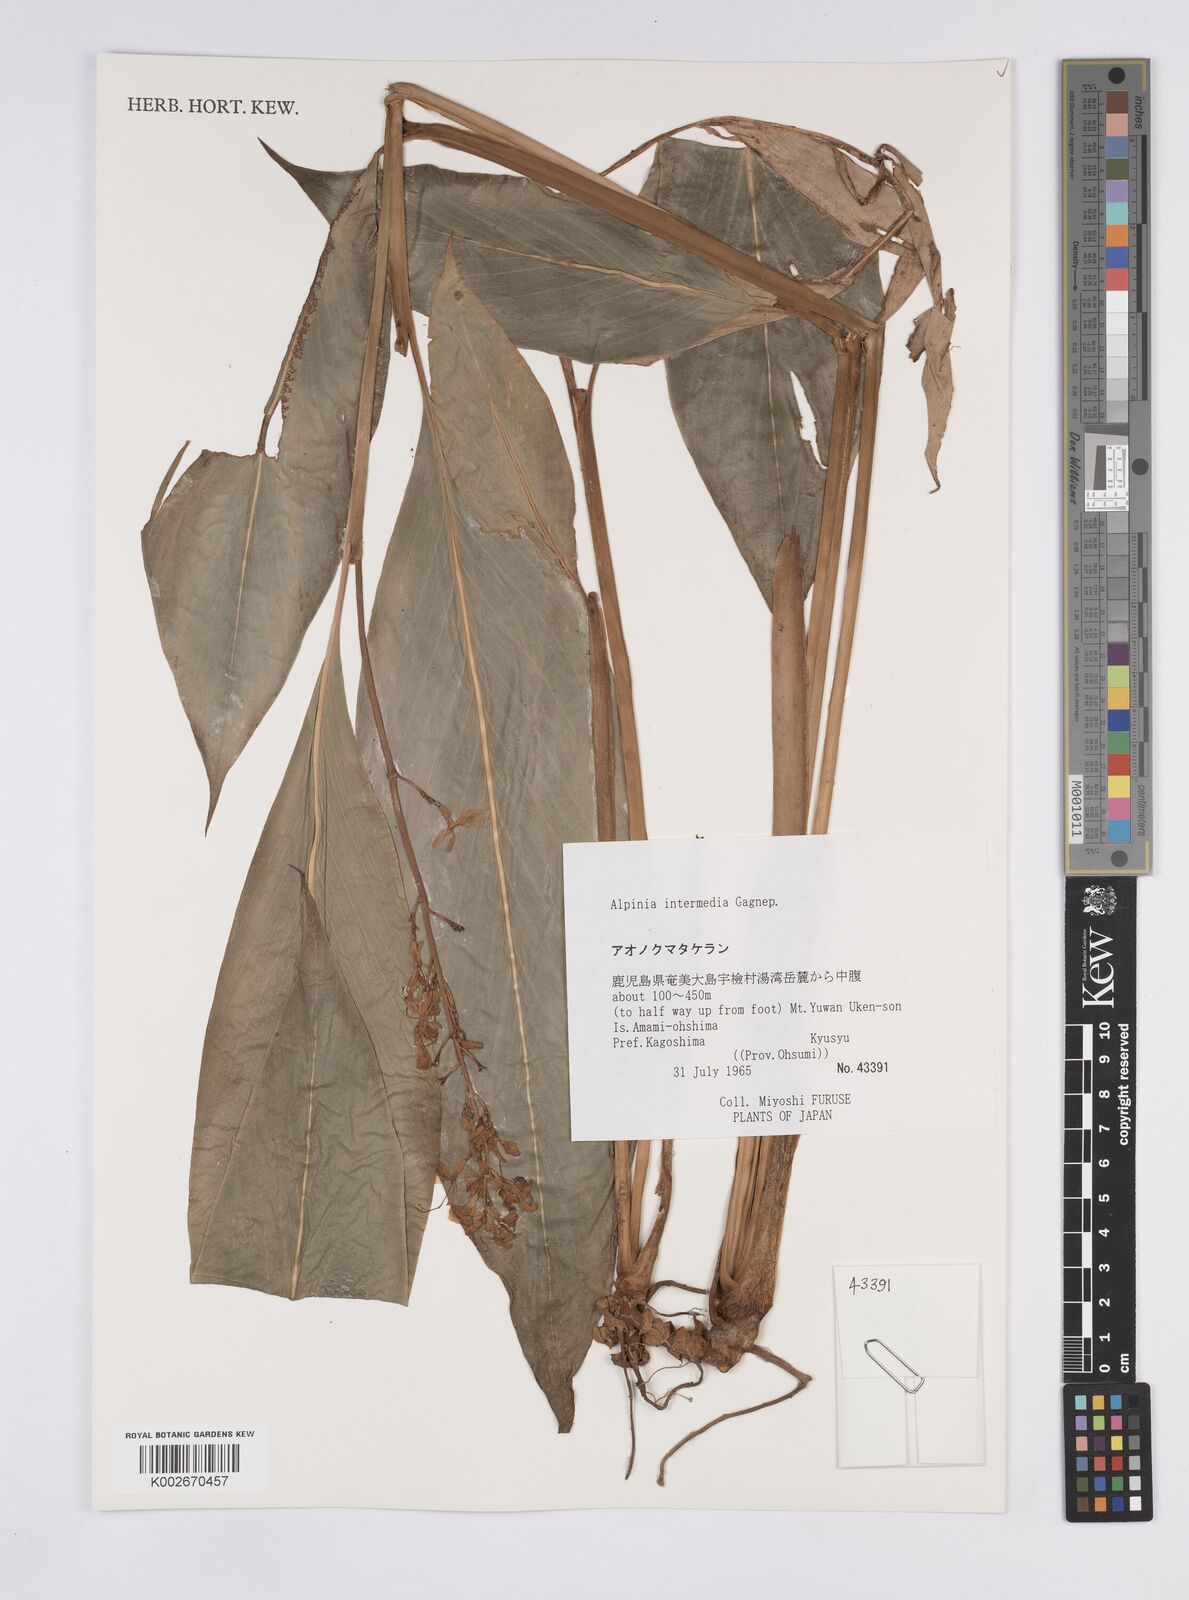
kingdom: Plantae
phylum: Tracheophyta
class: Liliopsida
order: Zingiberales
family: Zingiberaceae
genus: Alpinia
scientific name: Alpinia intermedia
